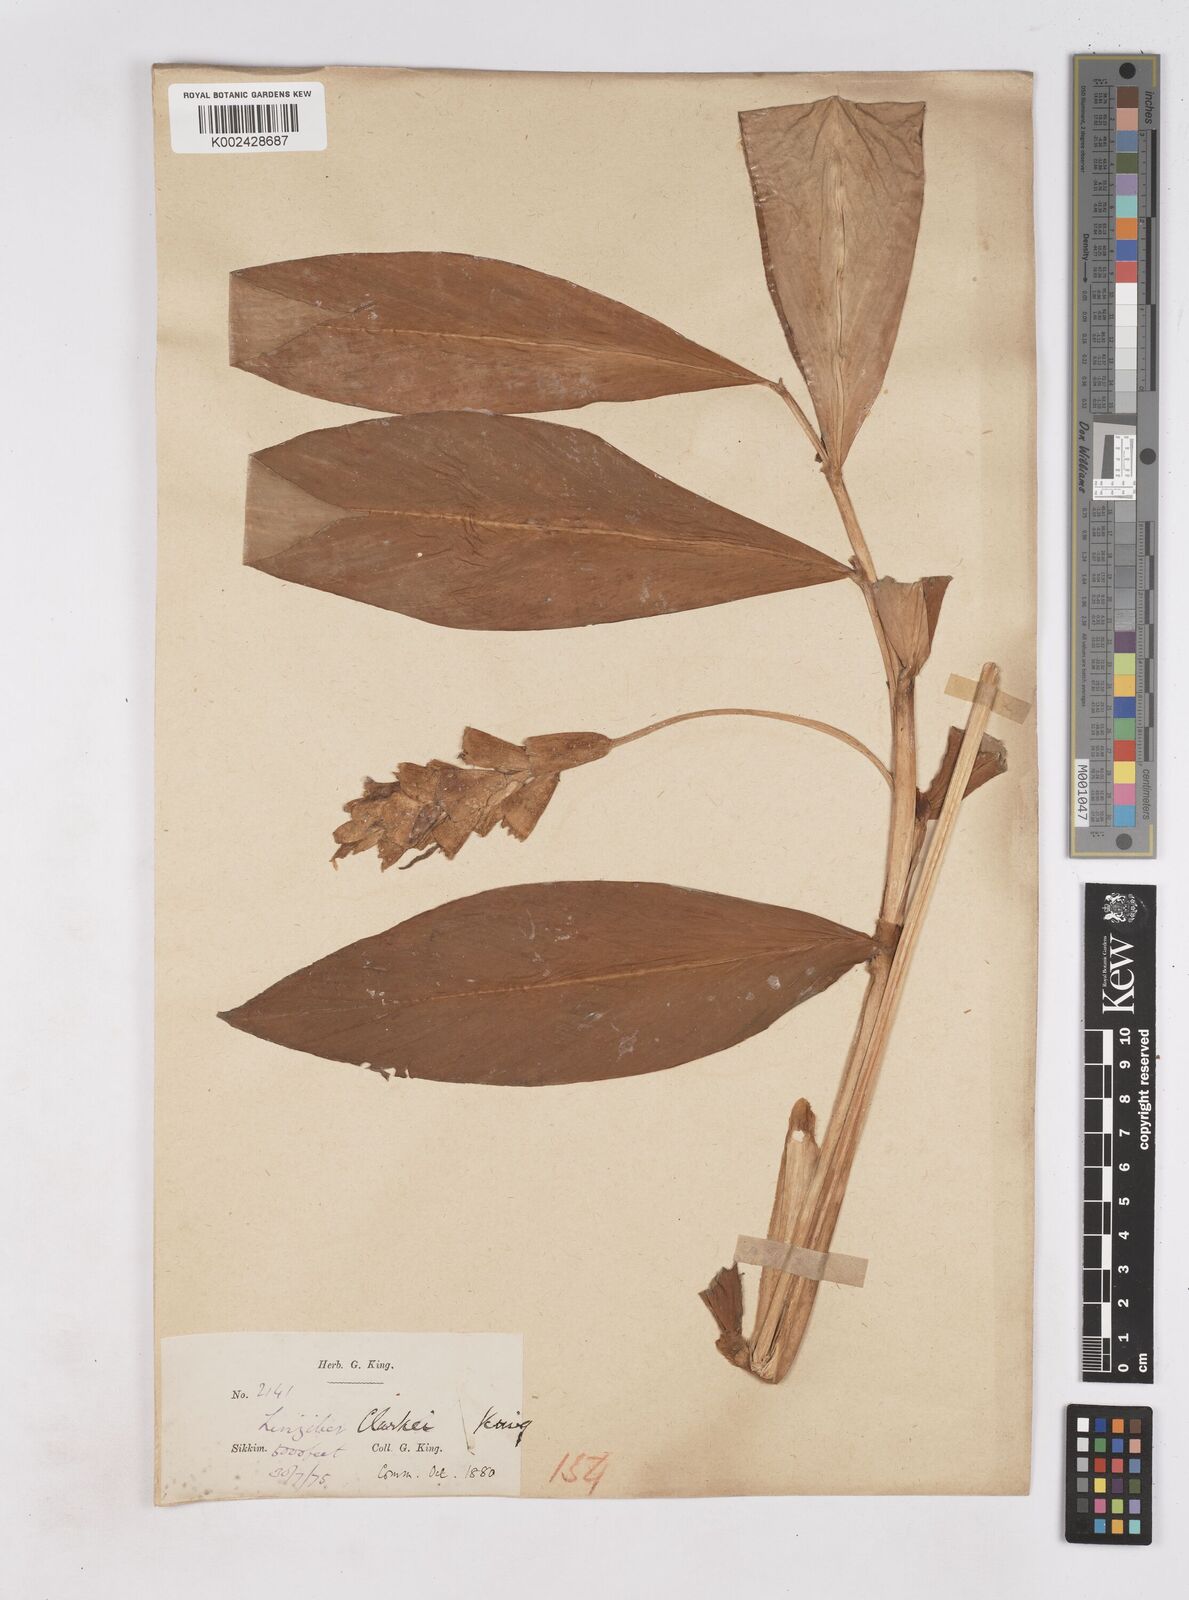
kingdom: Plantae
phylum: Tracheophyta
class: Liliopsida
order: Zingiberales
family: Zingiberaceae
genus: Zingiber
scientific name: Zingiber clarkei
